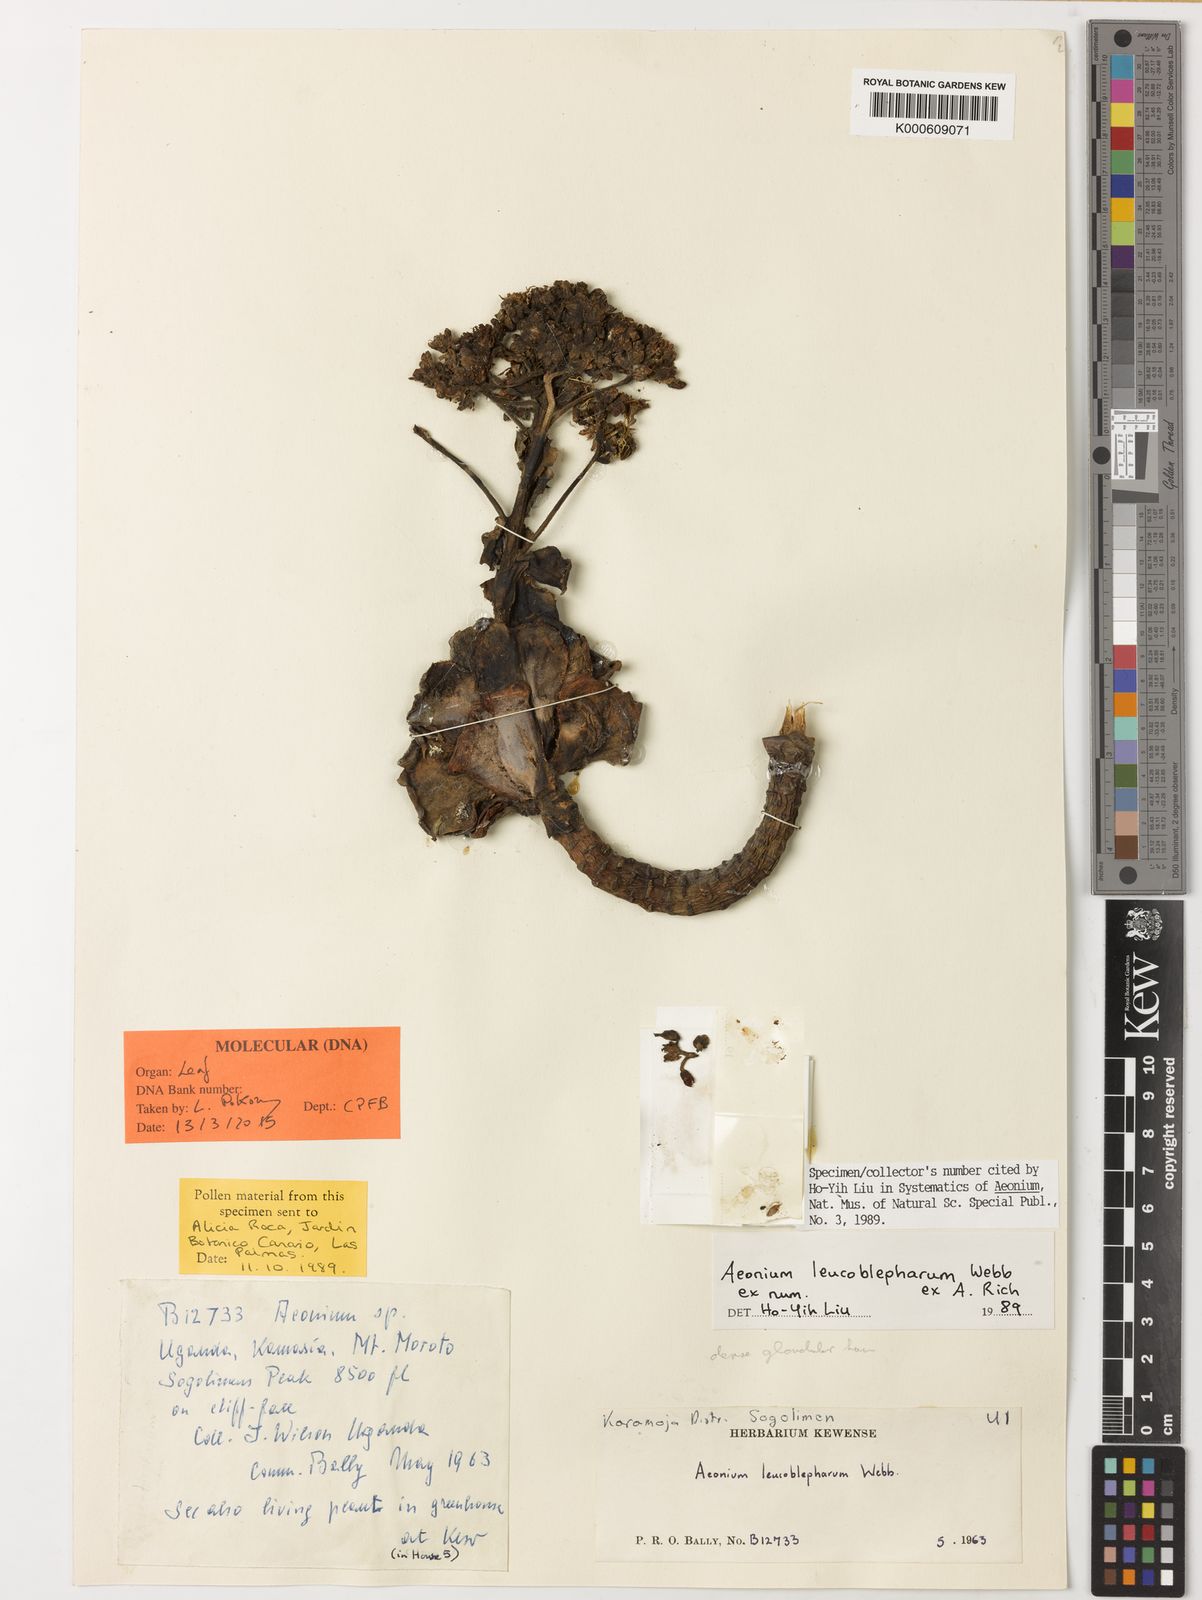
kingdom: Plantae
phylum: Tracheophyta
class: Magnoliopsida
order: Saxifragales
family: Crassulaceae
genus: Aeonium
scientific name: Aeonium leucoblepharum
